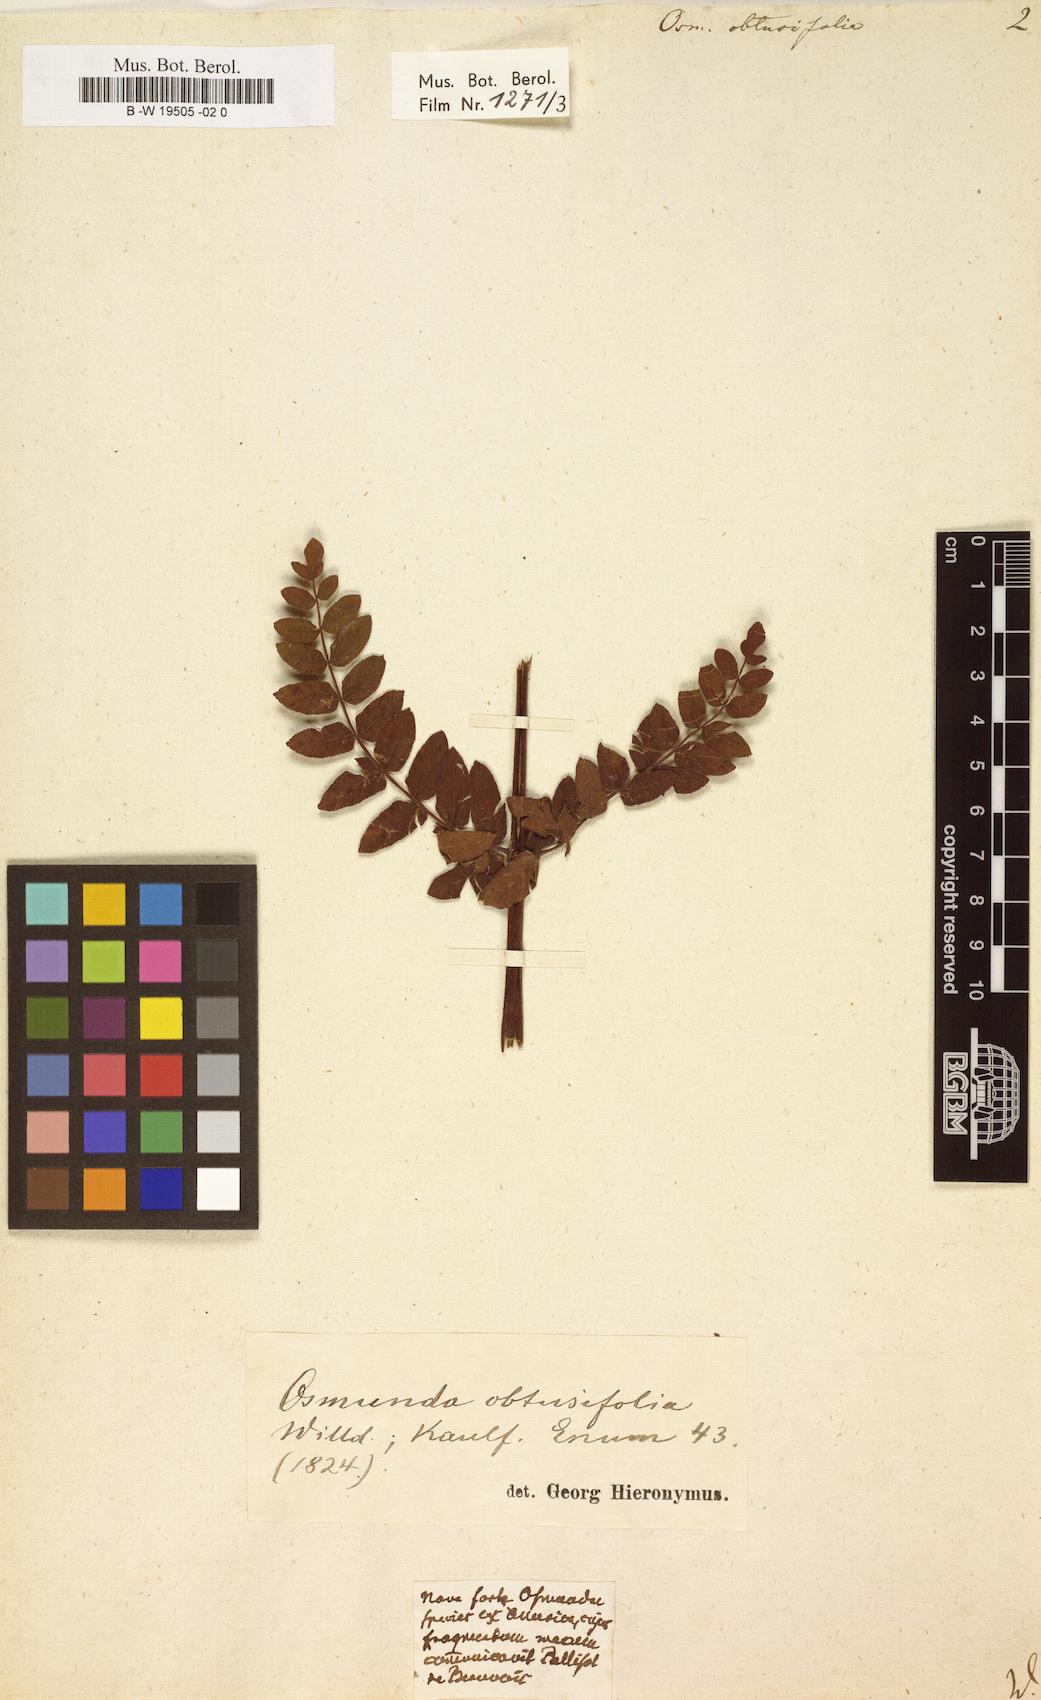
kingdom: Plantae
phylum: Tracheophyta
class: Polypodiopsida
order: Osmundales
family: Osmundaceae
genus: Osmunda
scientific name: Osmunda regalis
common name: Royal fern
